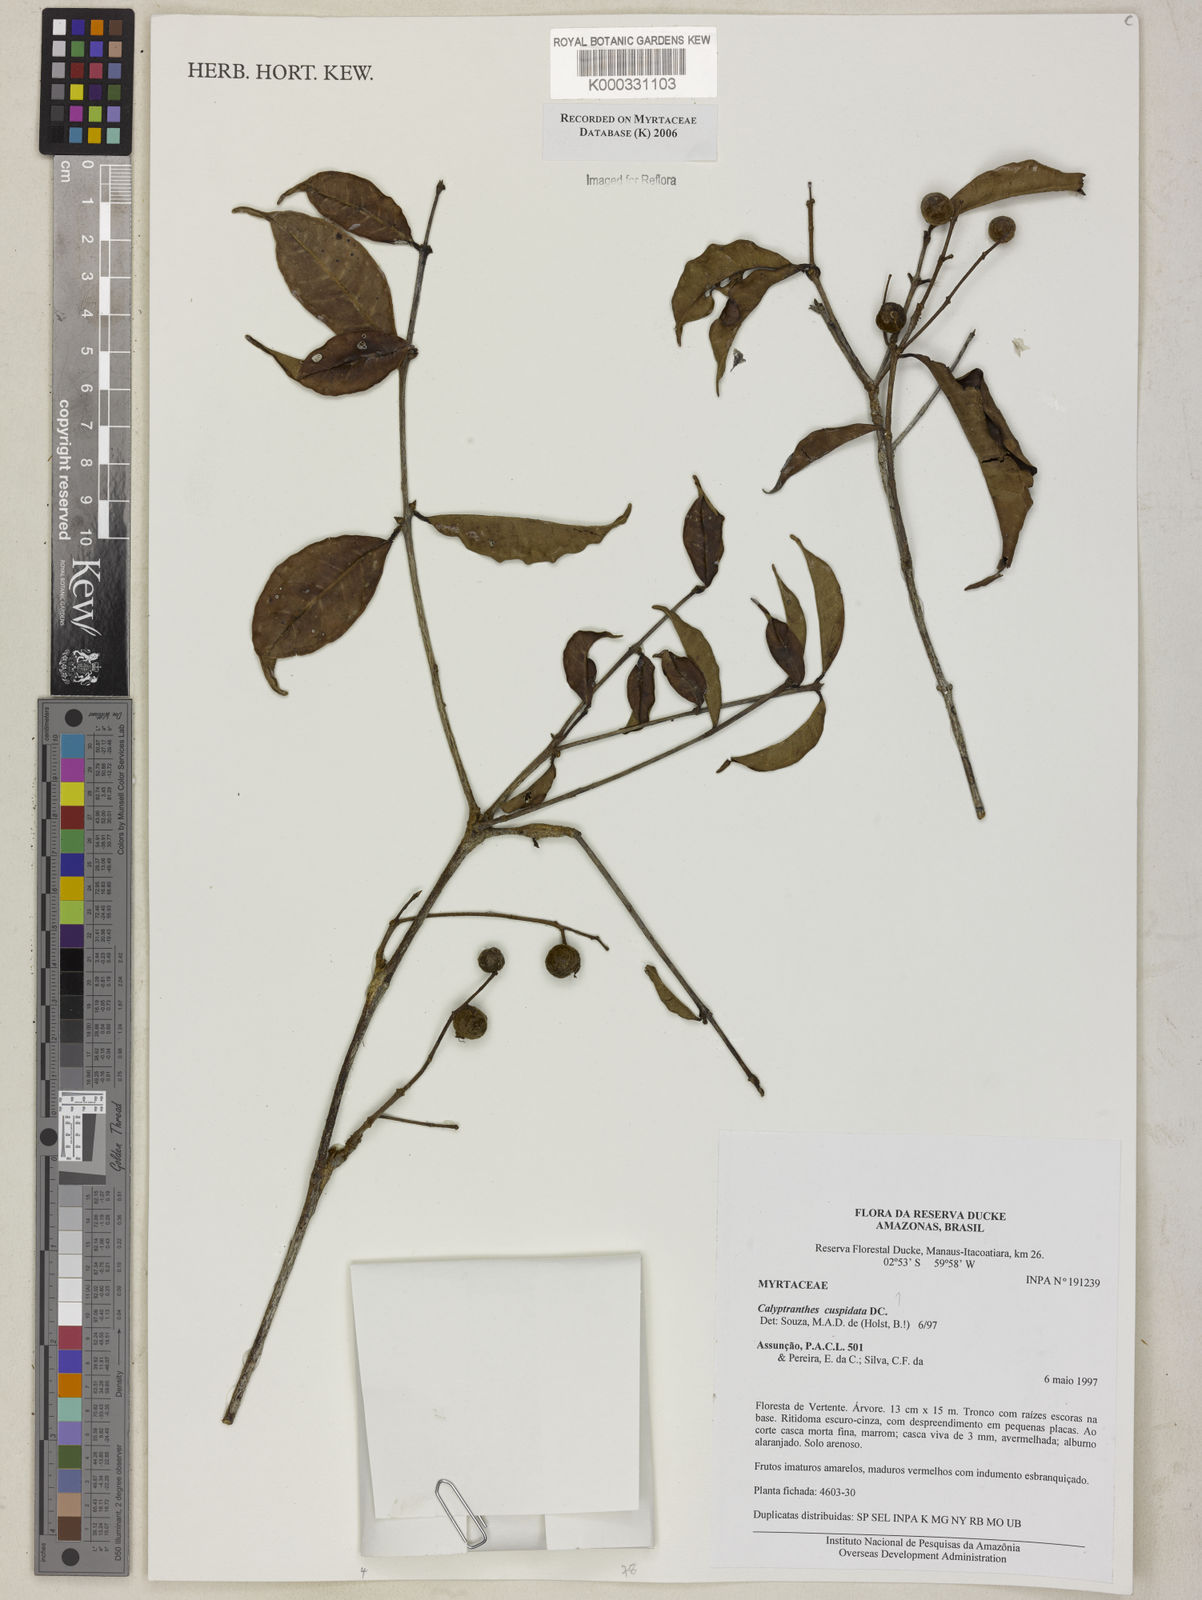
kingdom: Plantae
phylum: Tracheophyta
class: Magnoliopsida
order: Myrtales
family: Myrtaceae
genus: Myrcia
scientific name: Myrcia cuspidata
